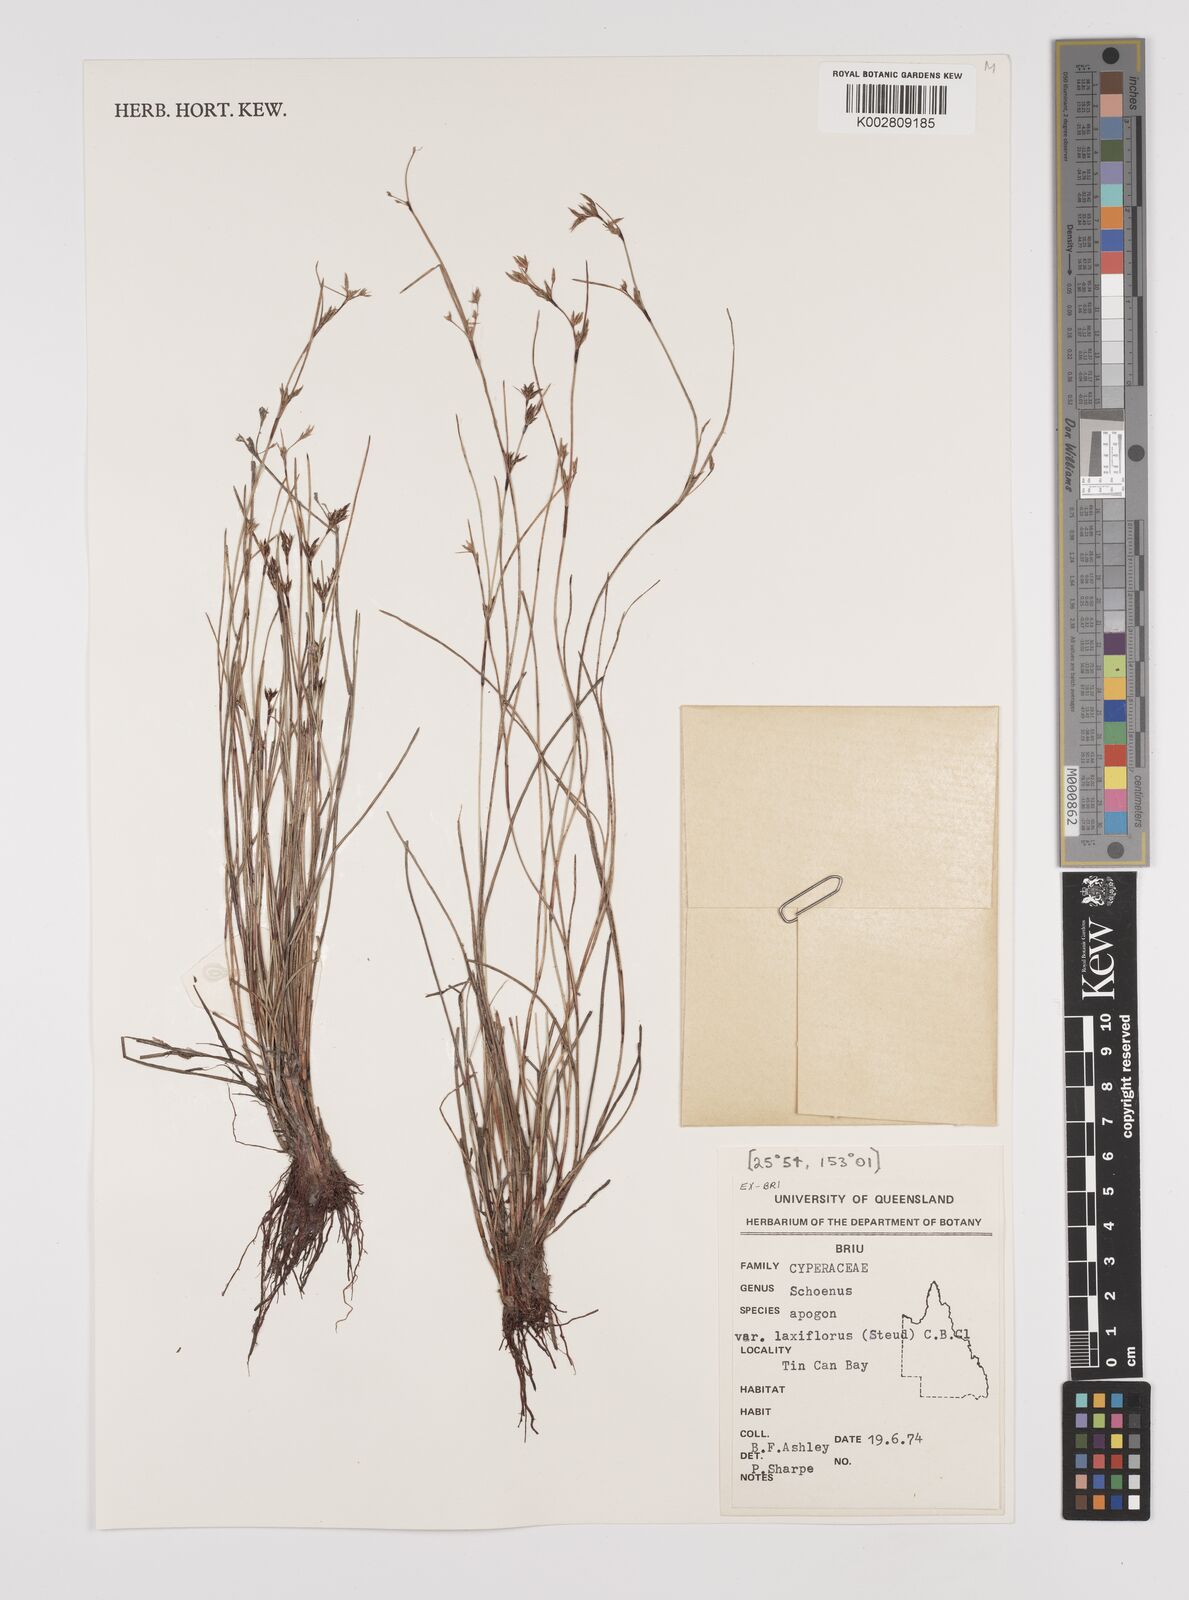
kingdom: Plantae
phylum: Tracheophyta
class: Liliopsida
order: Poales
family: Cyperaceae
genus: Schoenus
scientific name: Schoenus apogon
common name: Smooth bogrush
